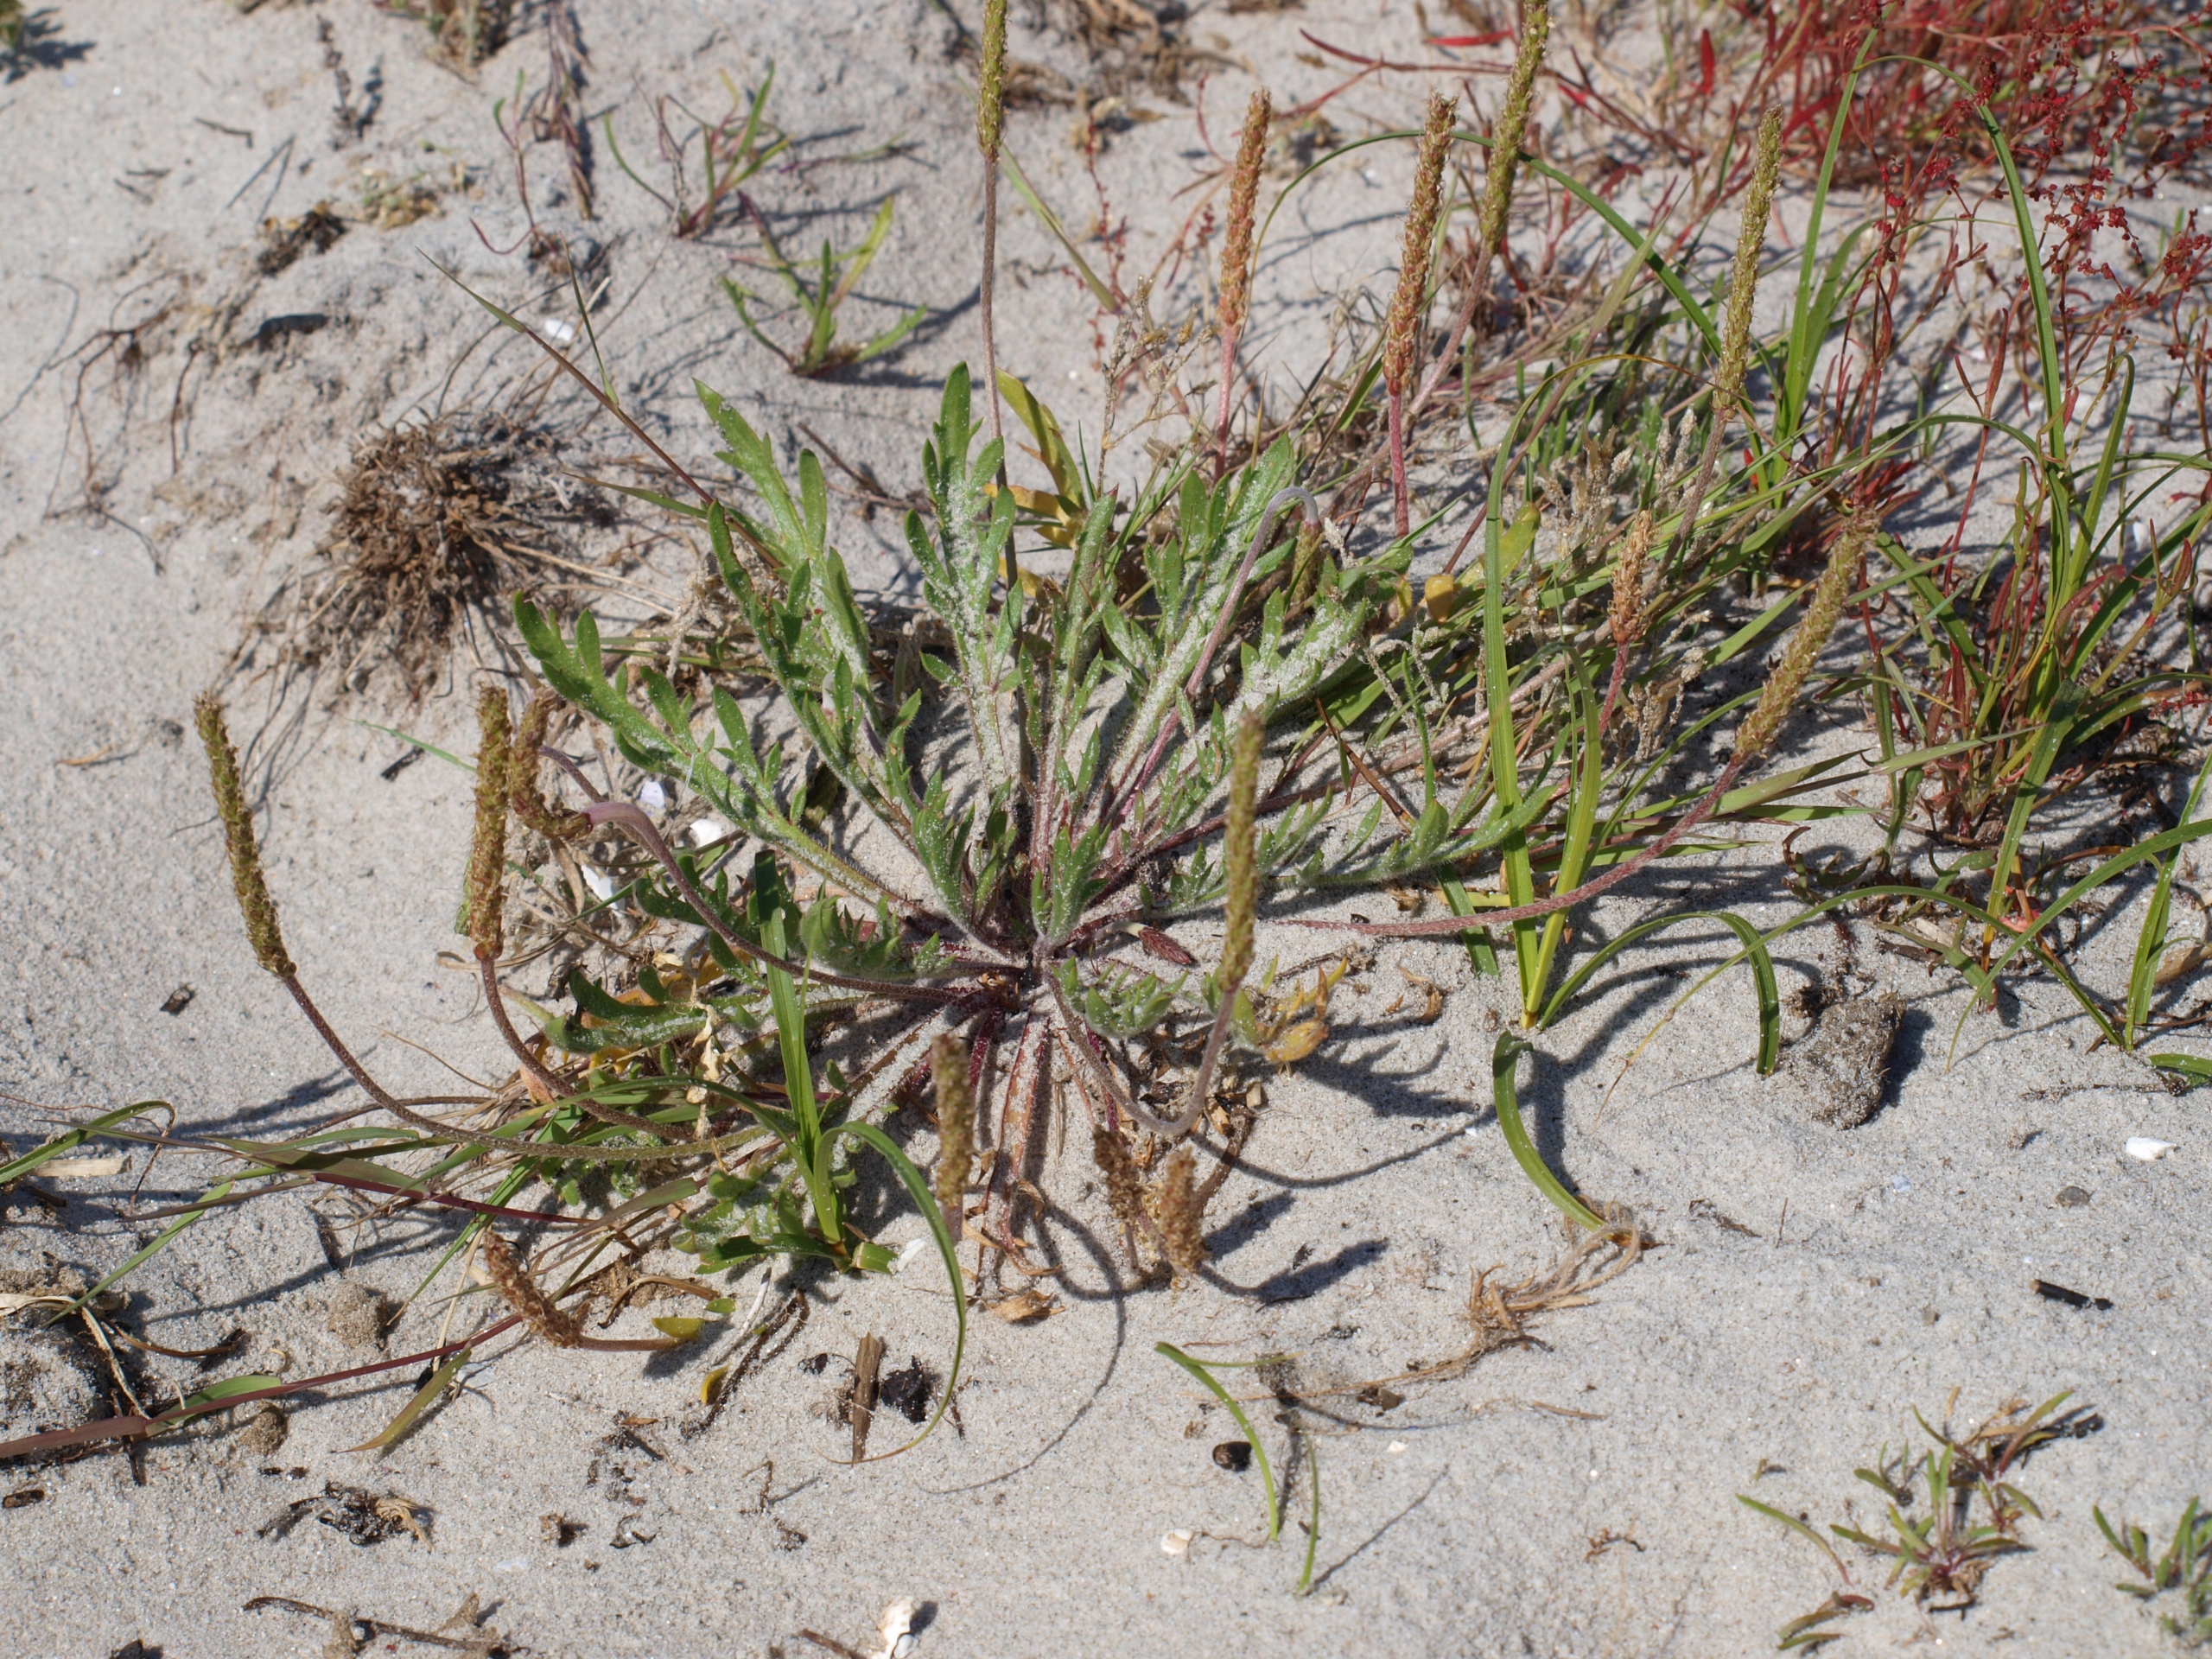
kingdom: Plantae
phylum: Tracheophyta
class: Magnoliopsida
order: Lamiales
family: Plantaginaceae
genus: Plantago
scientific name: Plantago coronopus
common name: Fliget vejbred
